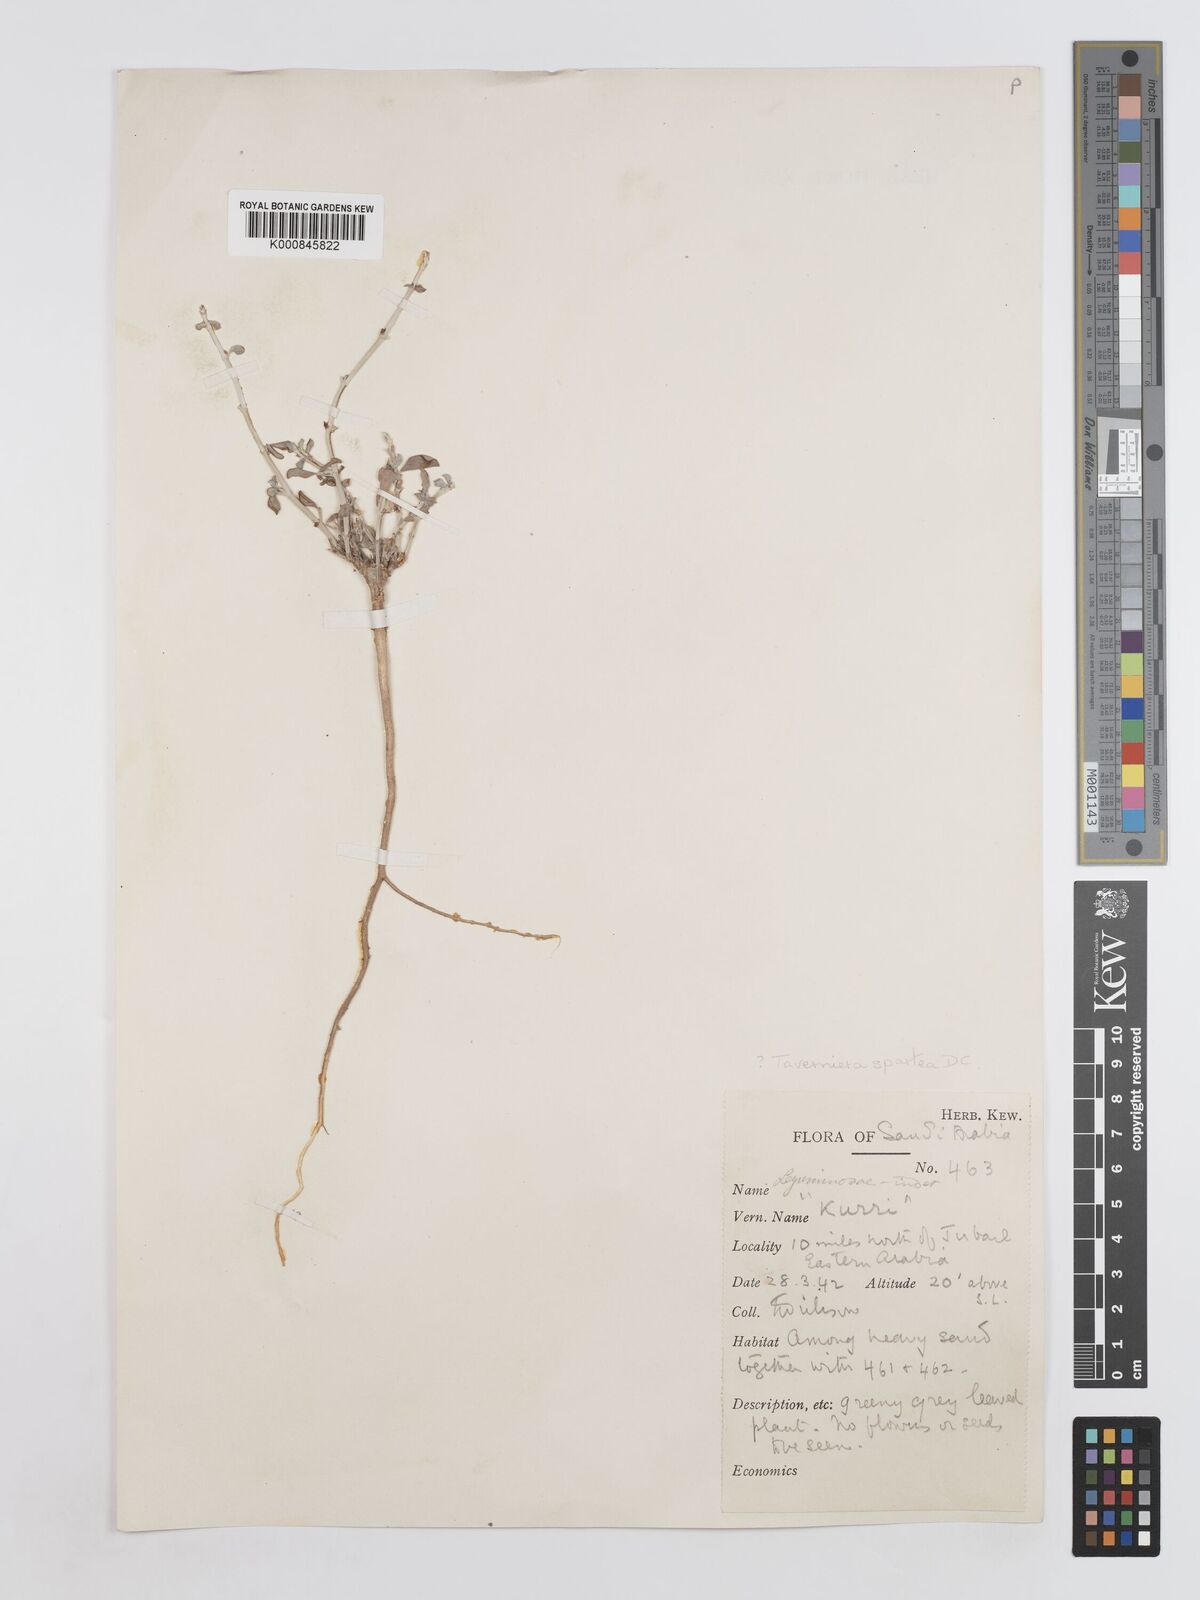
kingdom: Plantae
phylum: Tracheophyta
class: Magnoliopsida
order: Fabales
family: Fabaceae
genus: Taverniera
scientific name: Taverniera spartea
